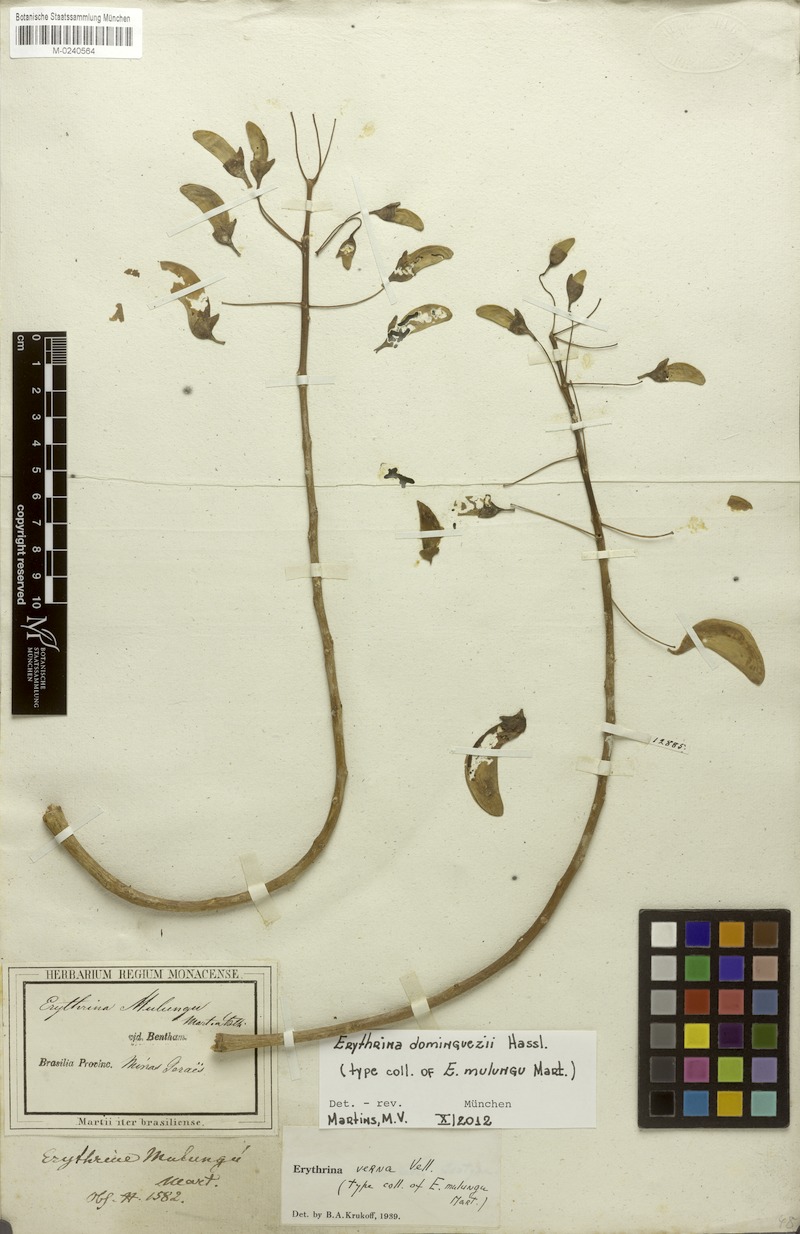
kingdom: Plantae
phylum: Tracheophyta
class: Magnoliopsida
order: Fabales
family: Fabaceae
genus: Erythrina
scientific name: Erythrina mulungu
